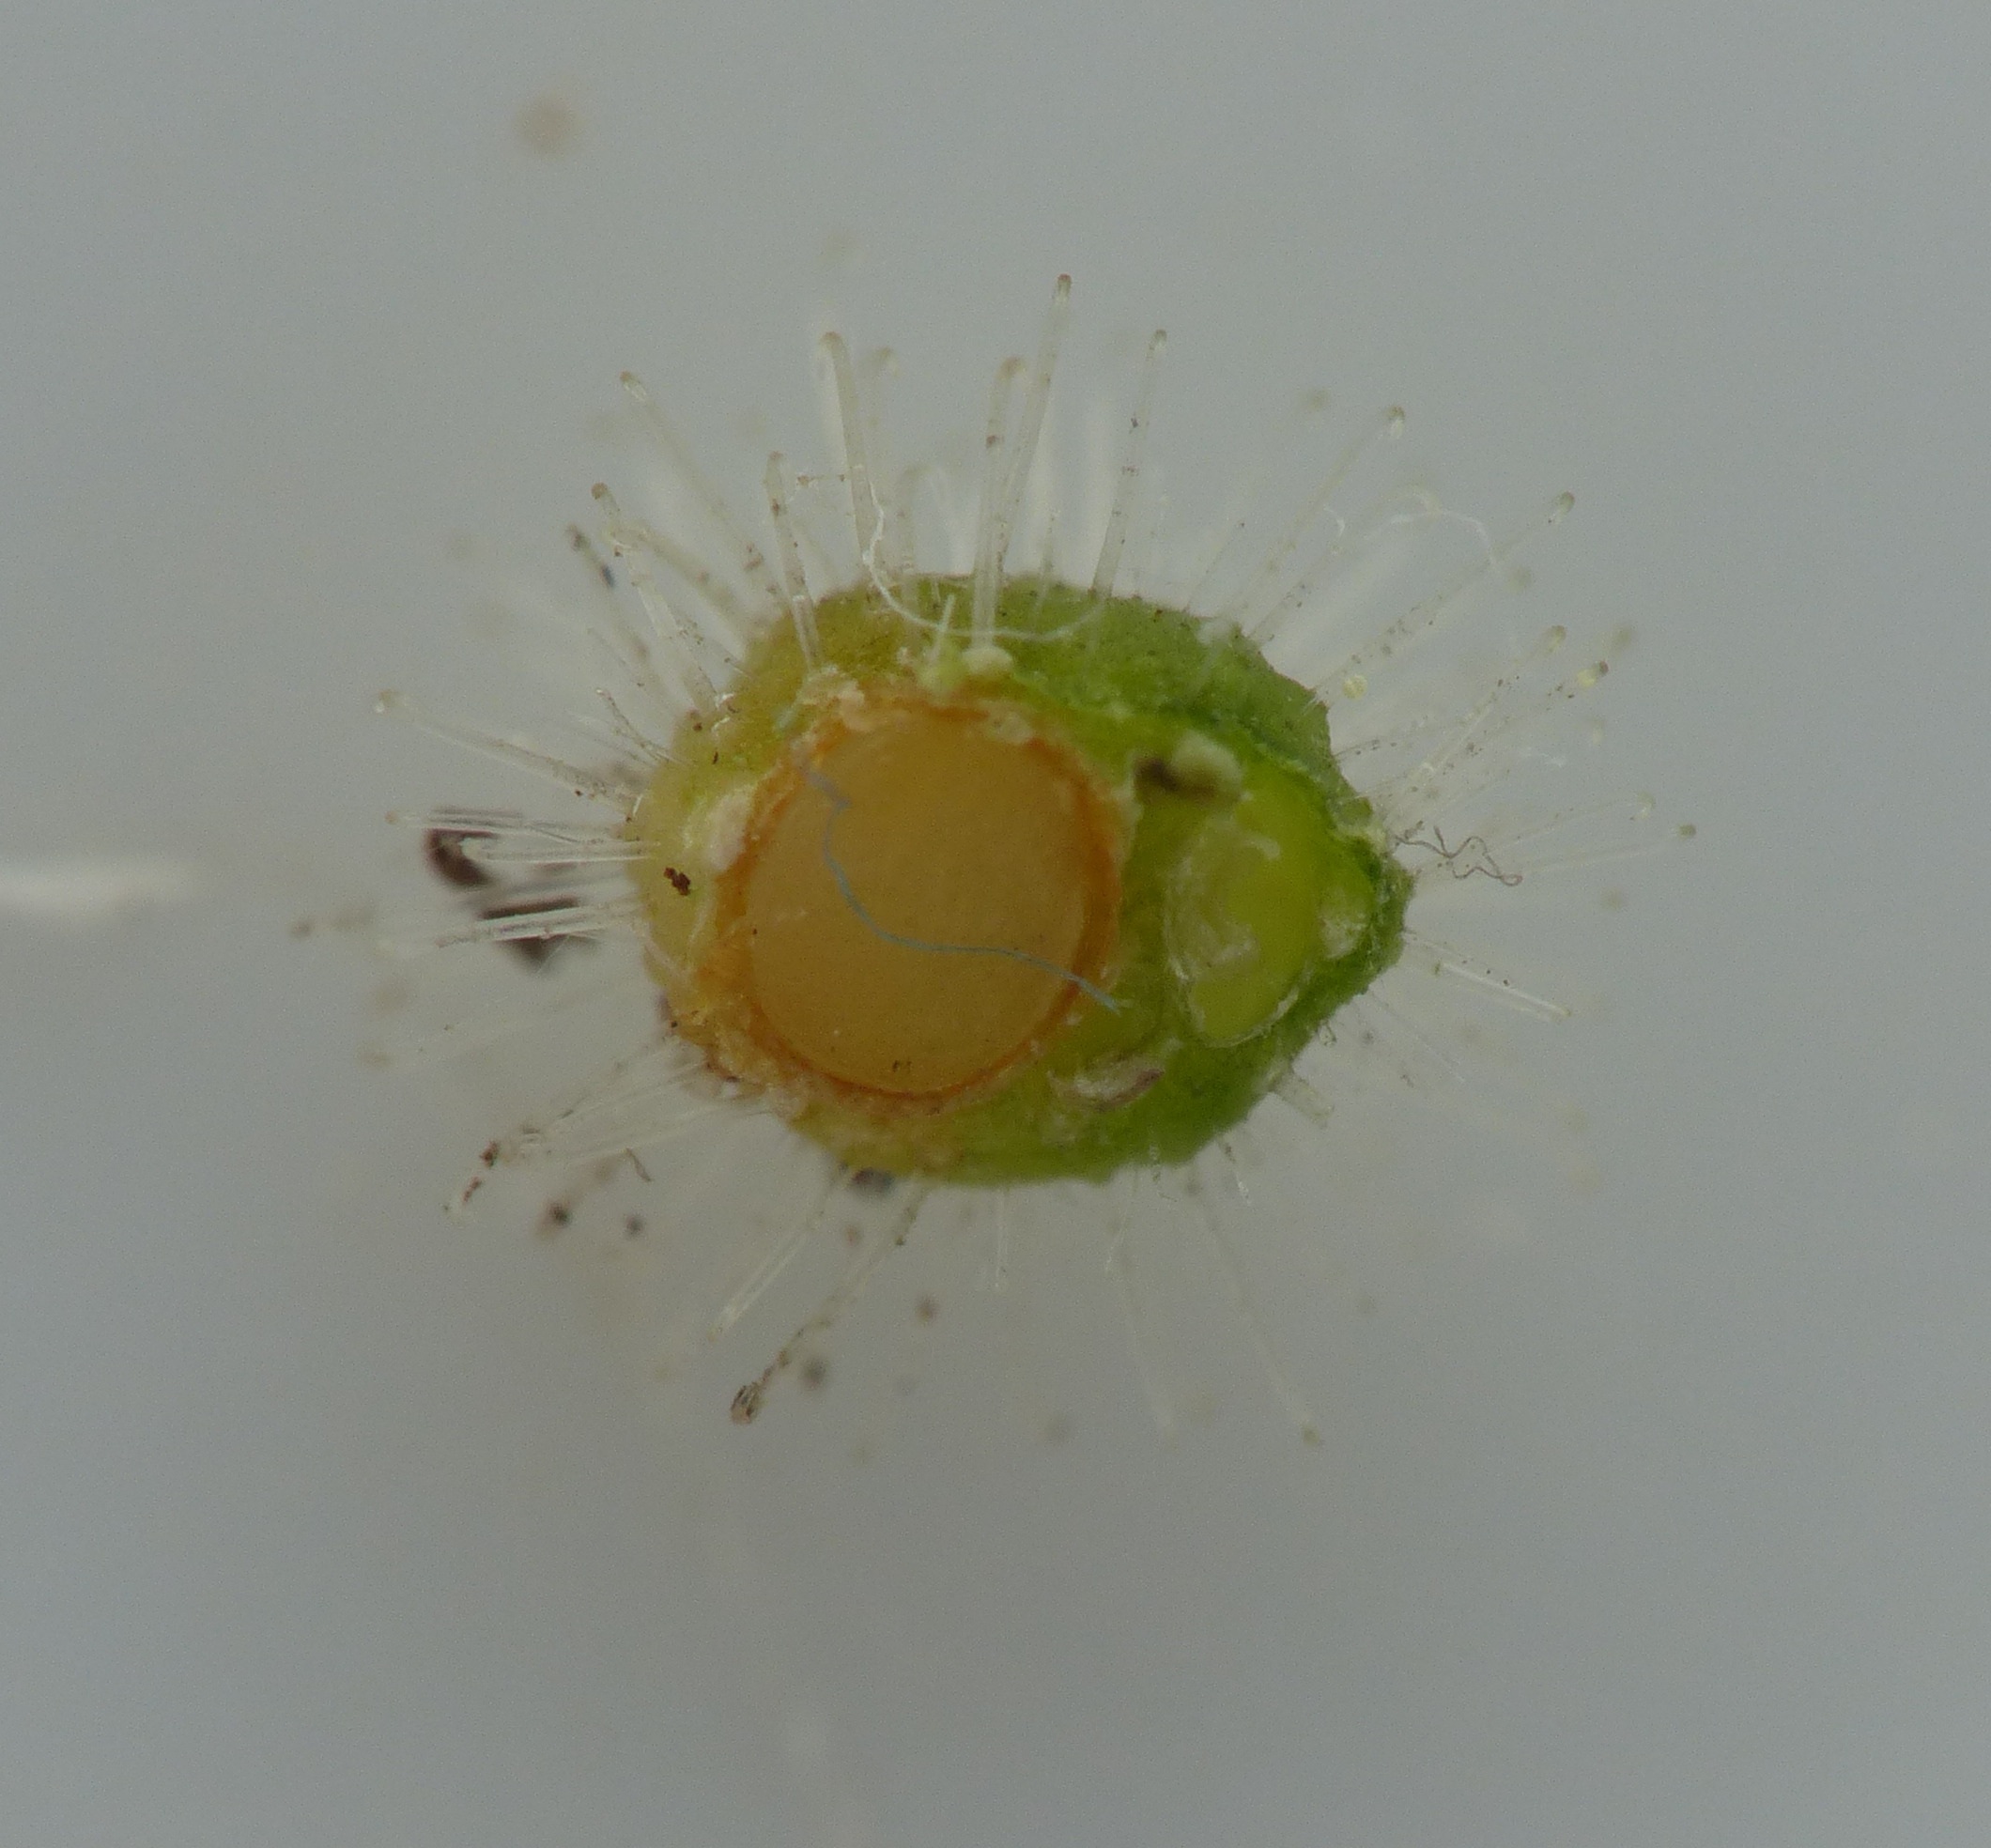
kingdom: Plantae
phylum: Tracheophyta
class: Magnoliopsida
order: Myrtales
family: Onagraceae
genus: Circaea
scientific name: Circaea
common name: Steffensurtslægten
